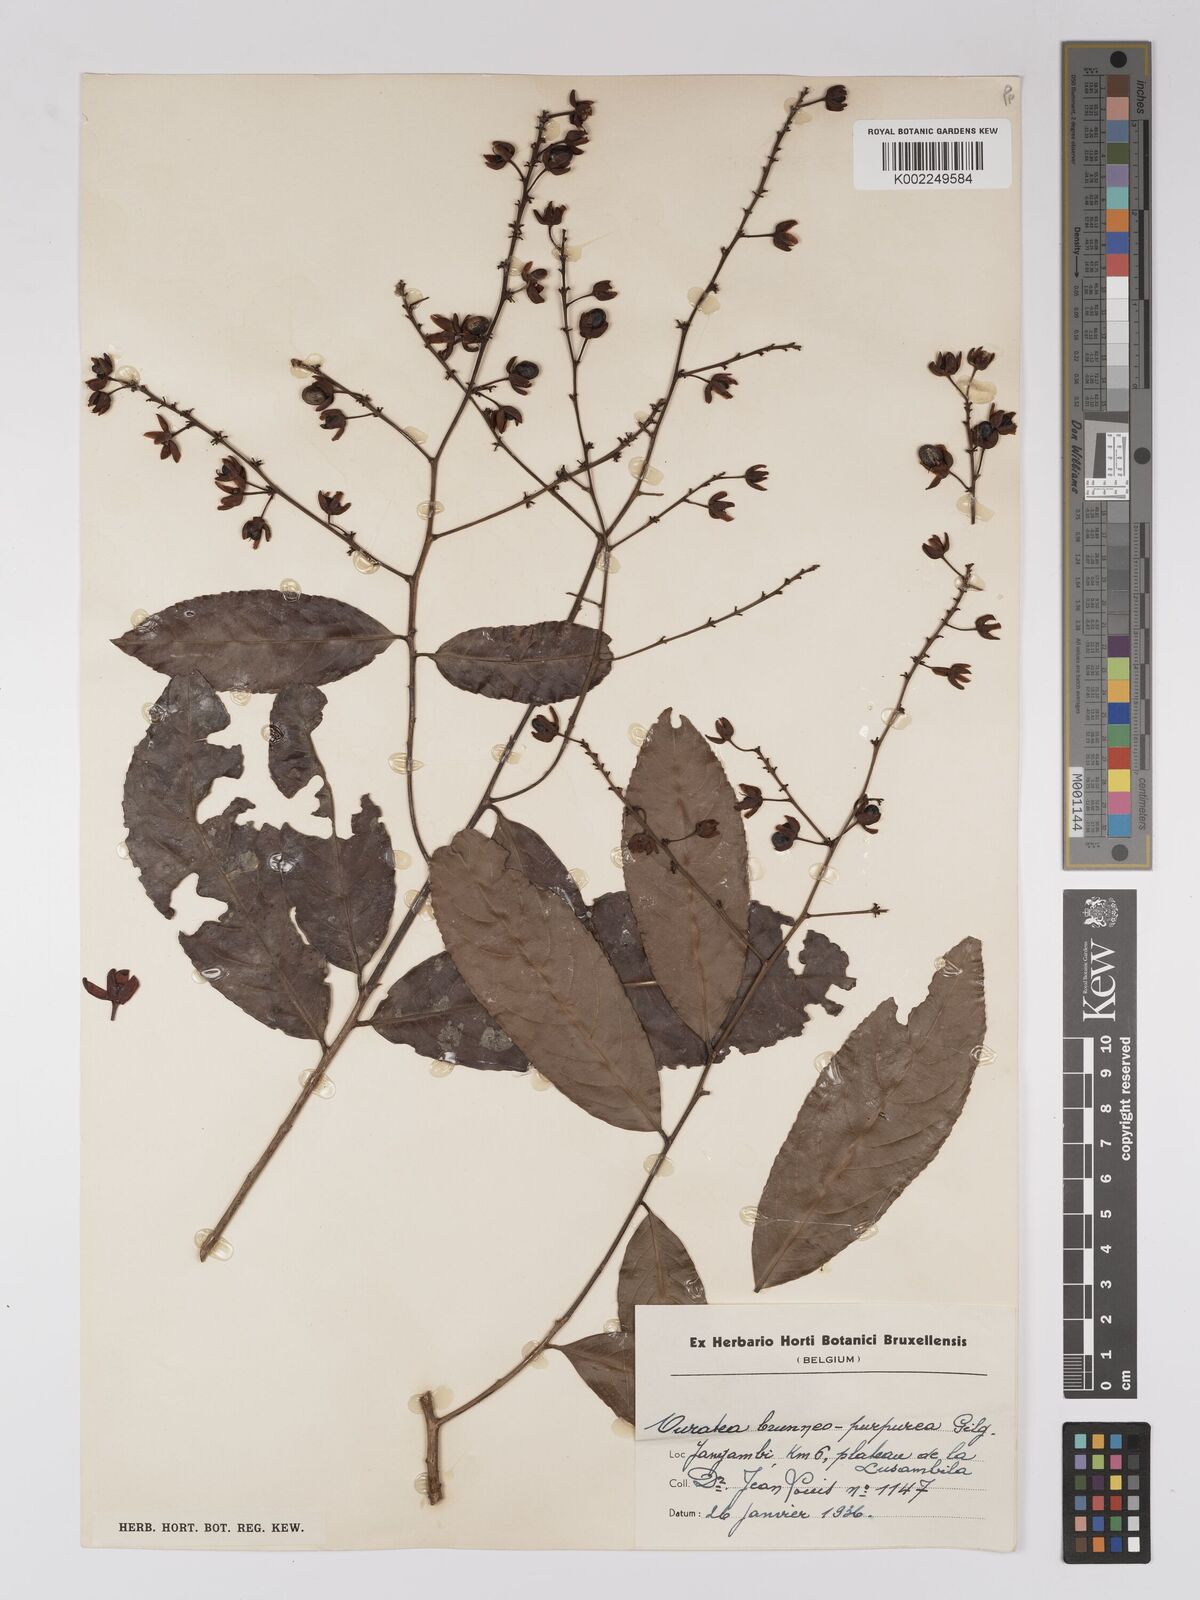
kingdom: Plantae
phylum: Tracheophyta
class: Magnoliopsida
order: Malpighiales
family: Ochnaceae
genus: Campylospermum
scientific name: Campylospermum reticulatum
